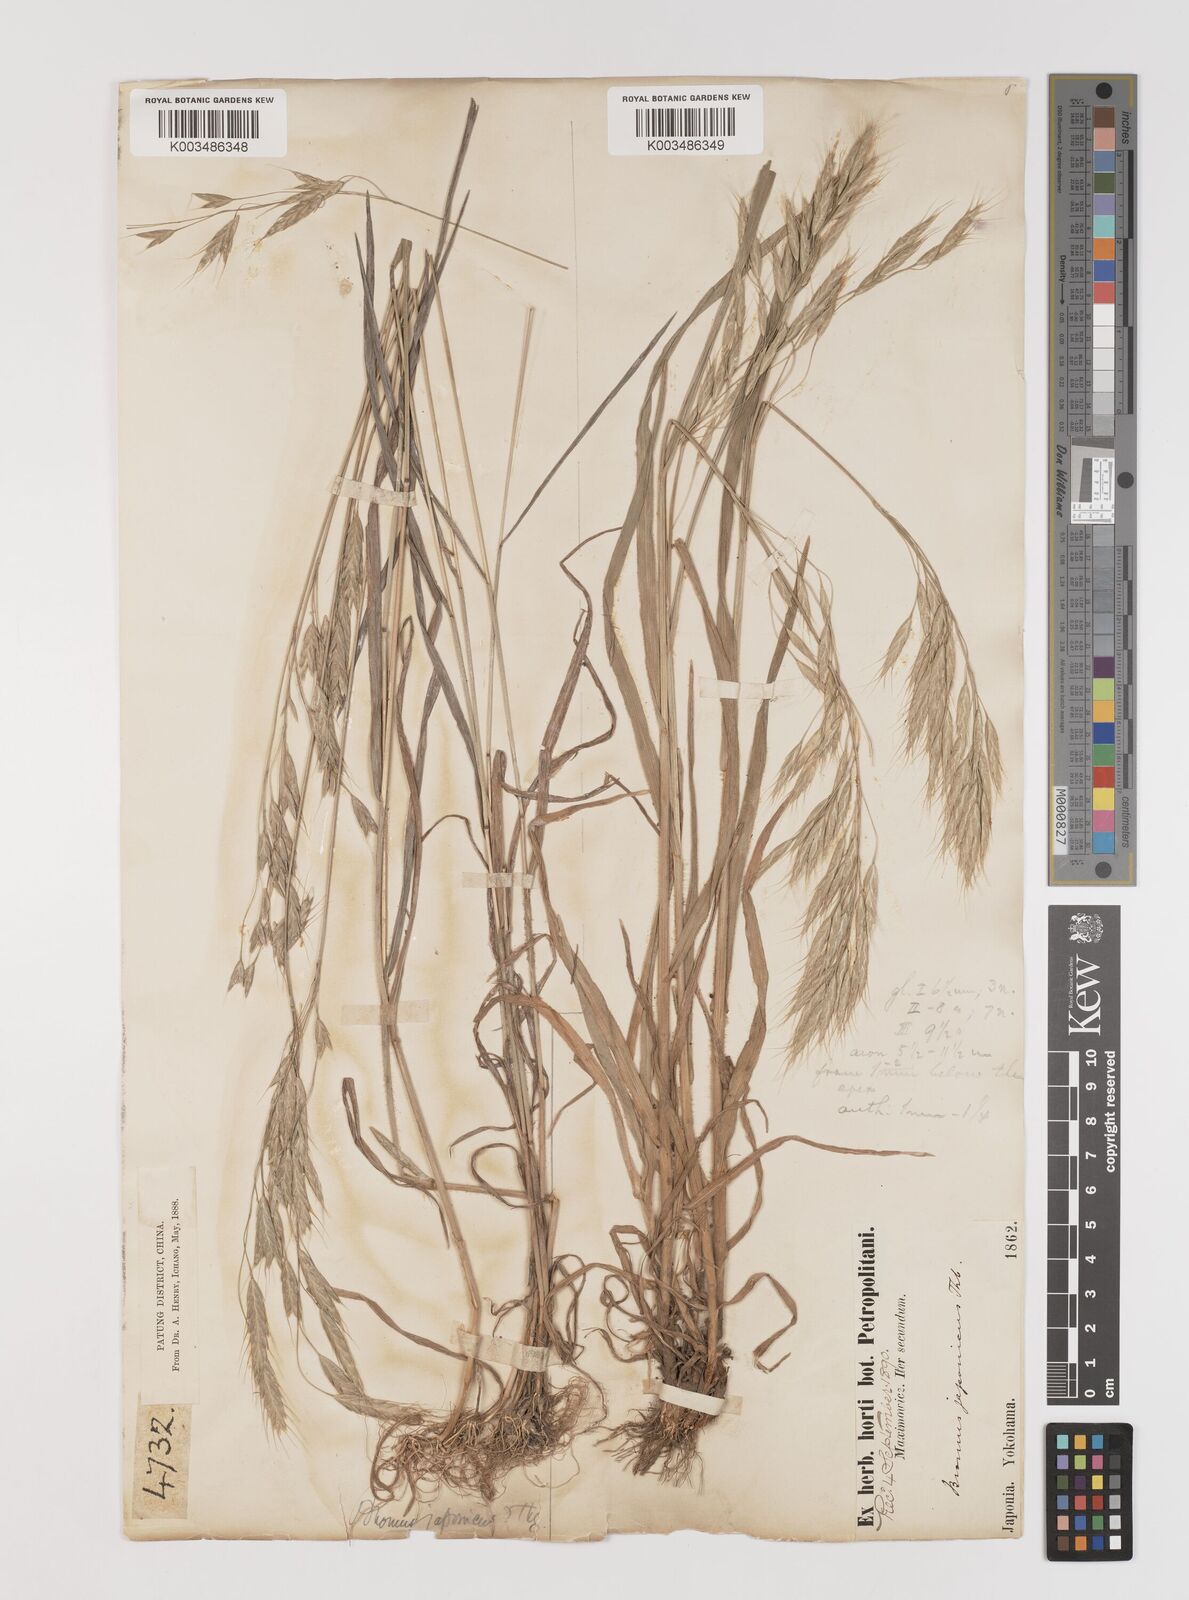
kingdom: Plantae
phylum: Tracheophyta
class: Liliopsida
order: Poales
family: Poaceae
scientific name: Poaceae
